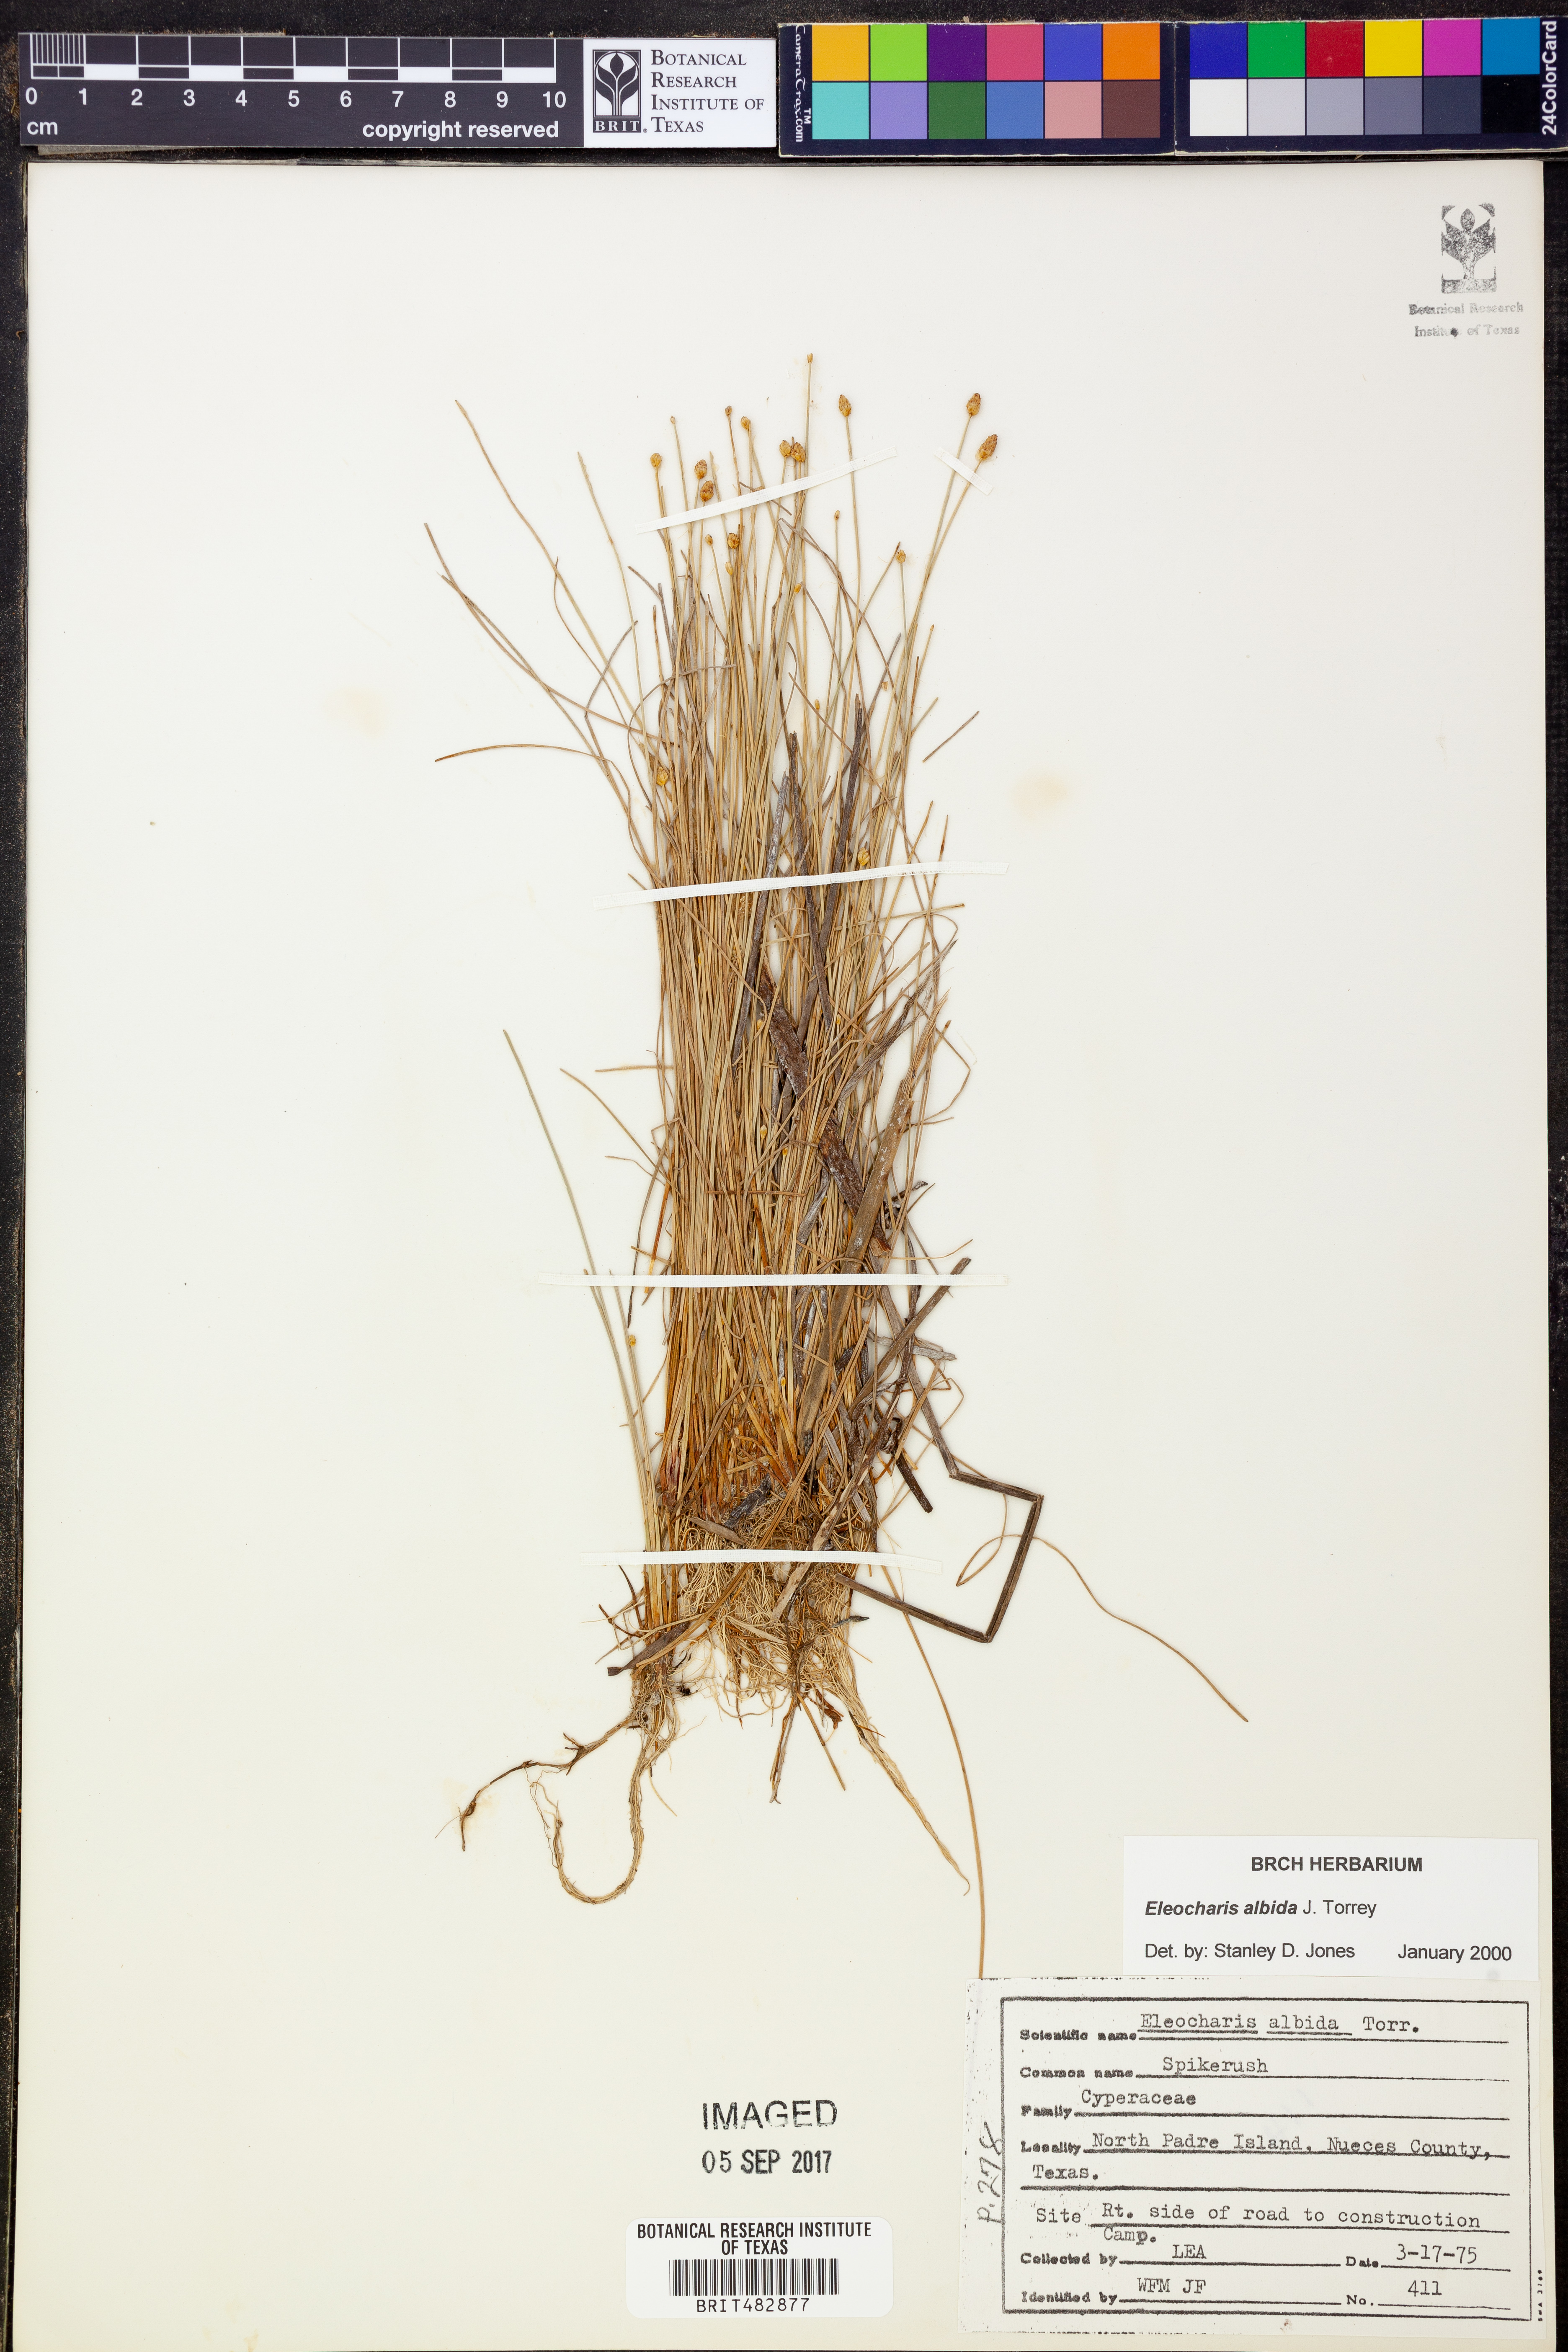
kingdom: Plantae
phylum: Tracheophyta
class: Liliopsida
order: Poales
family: Cyperaceae
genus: Eleocharis
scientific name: Eleocharis albida
